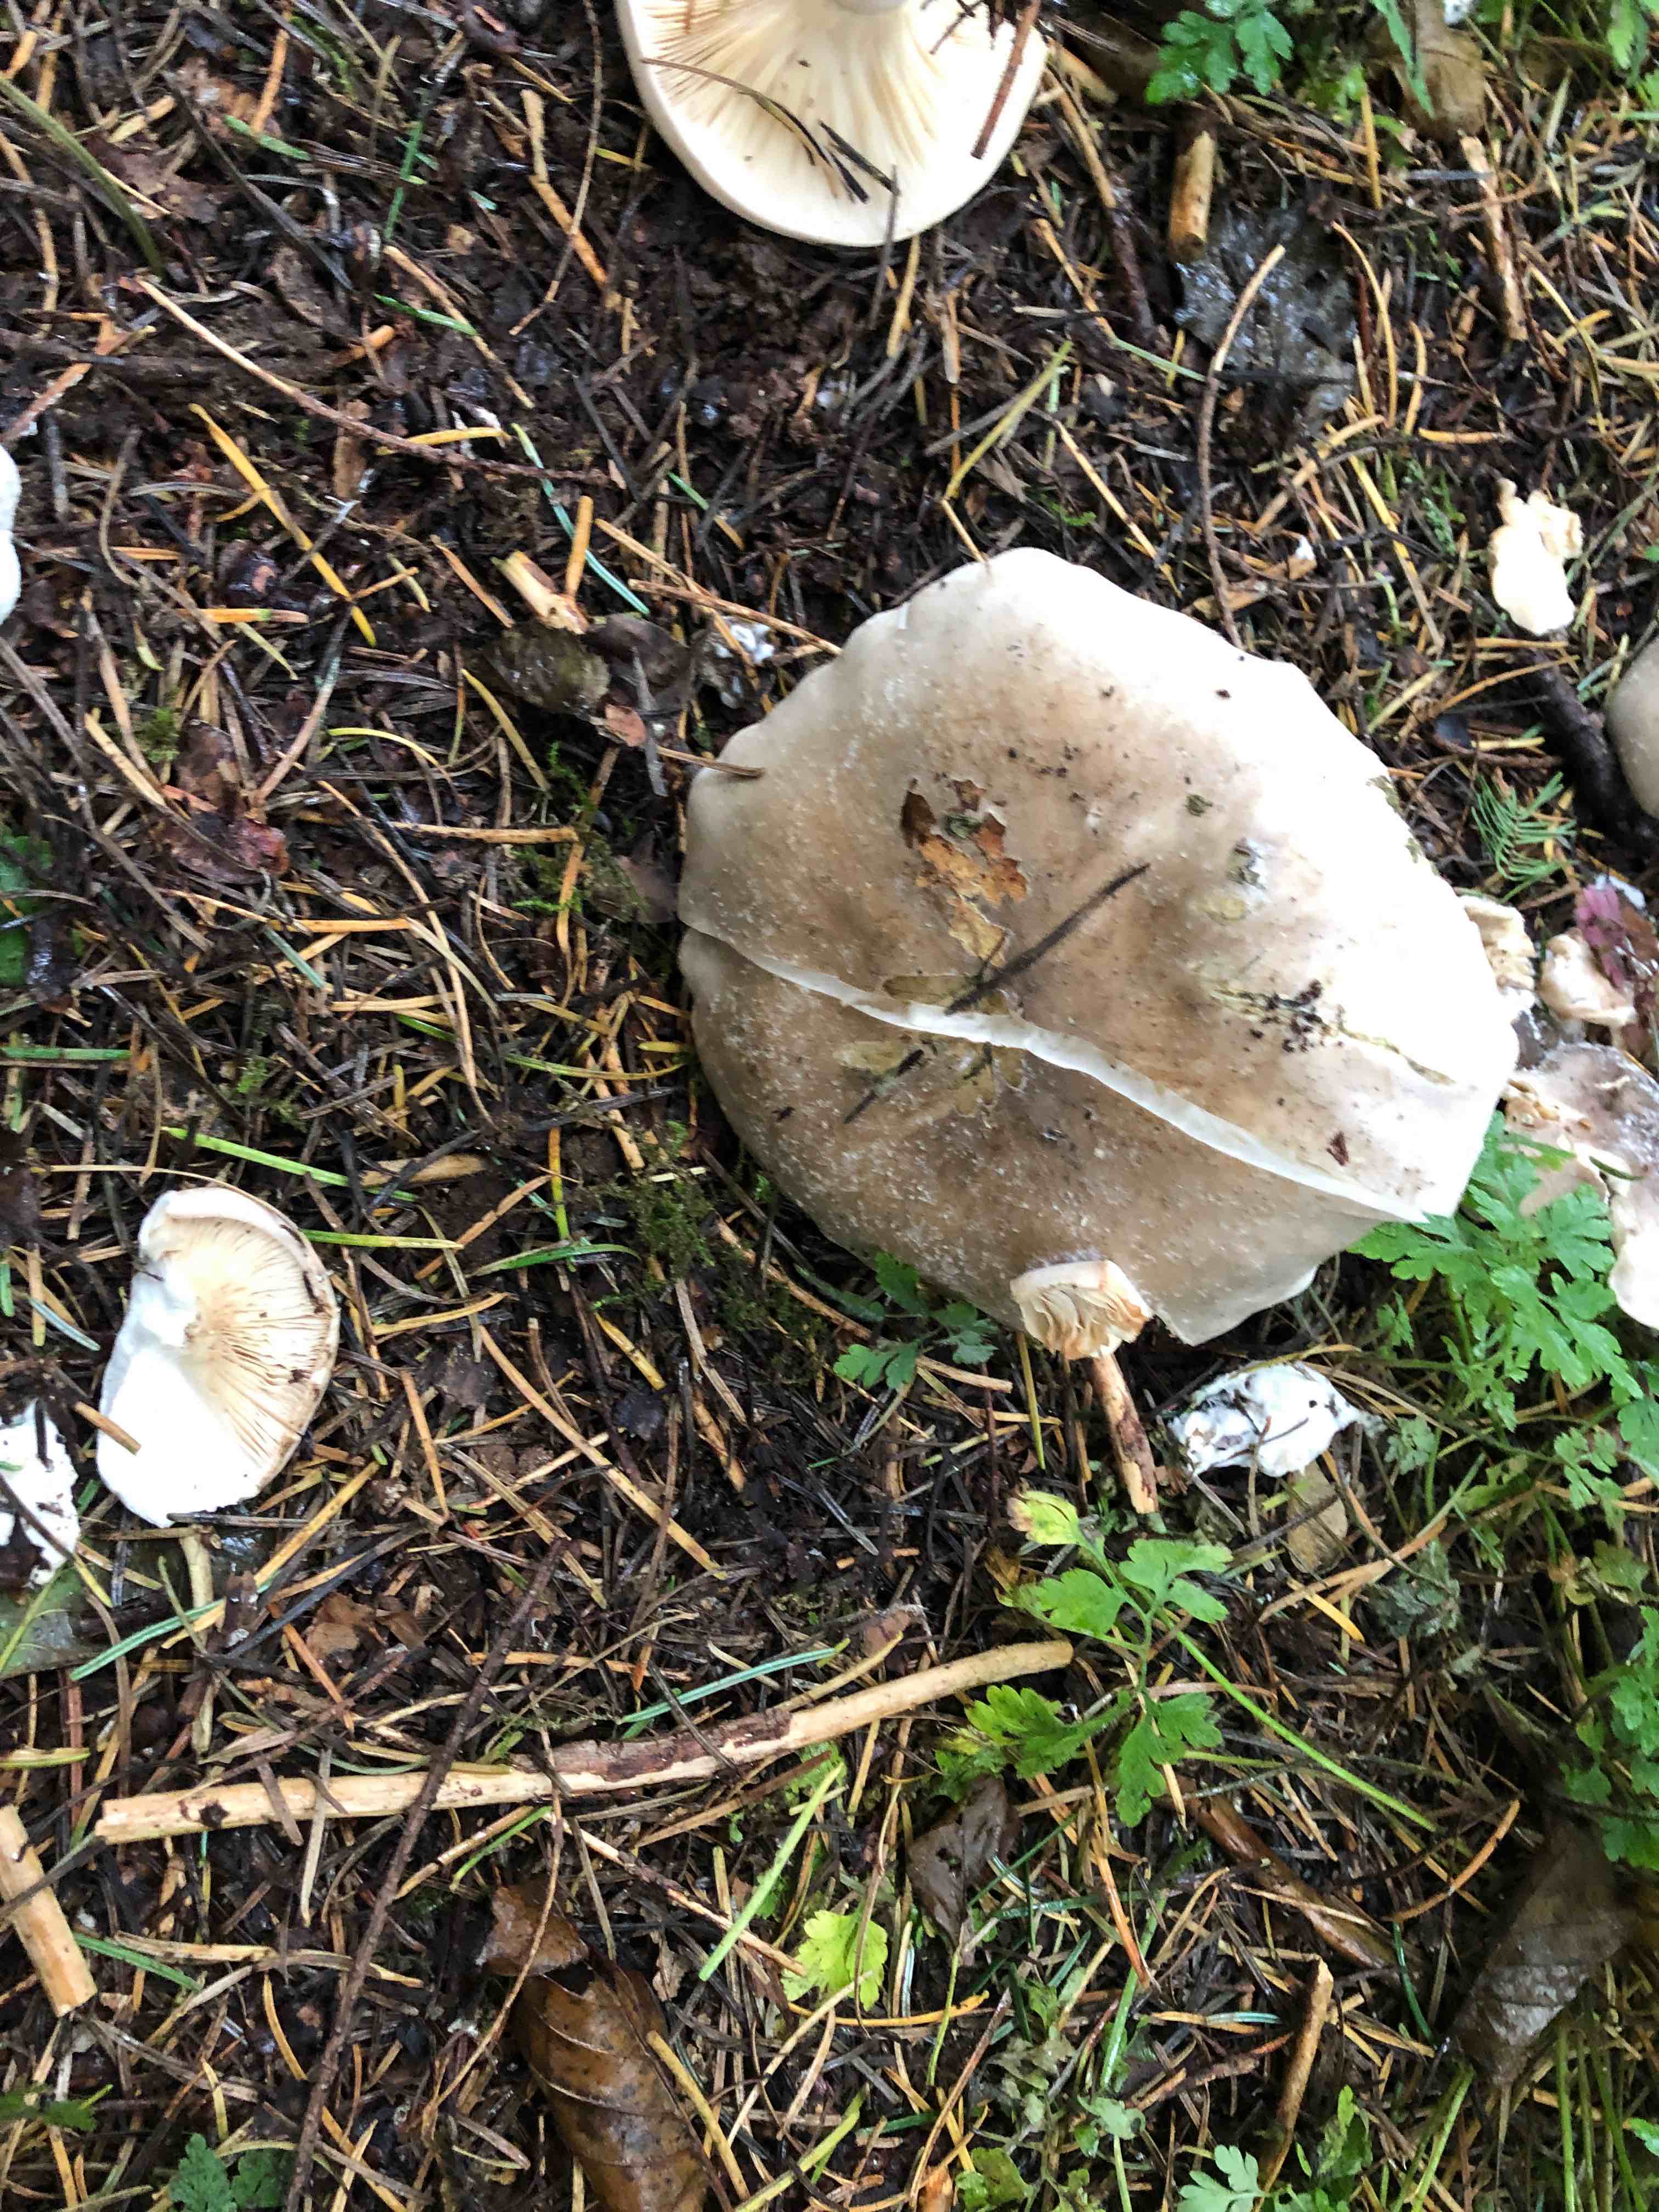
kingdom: Fungi
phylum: Basidiomycota
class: Agaricomycetes
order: Agaricales
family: Tricholomataceae
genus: Clitocybe
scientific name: Clitocybe nebularis
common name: tåge-tragthat
